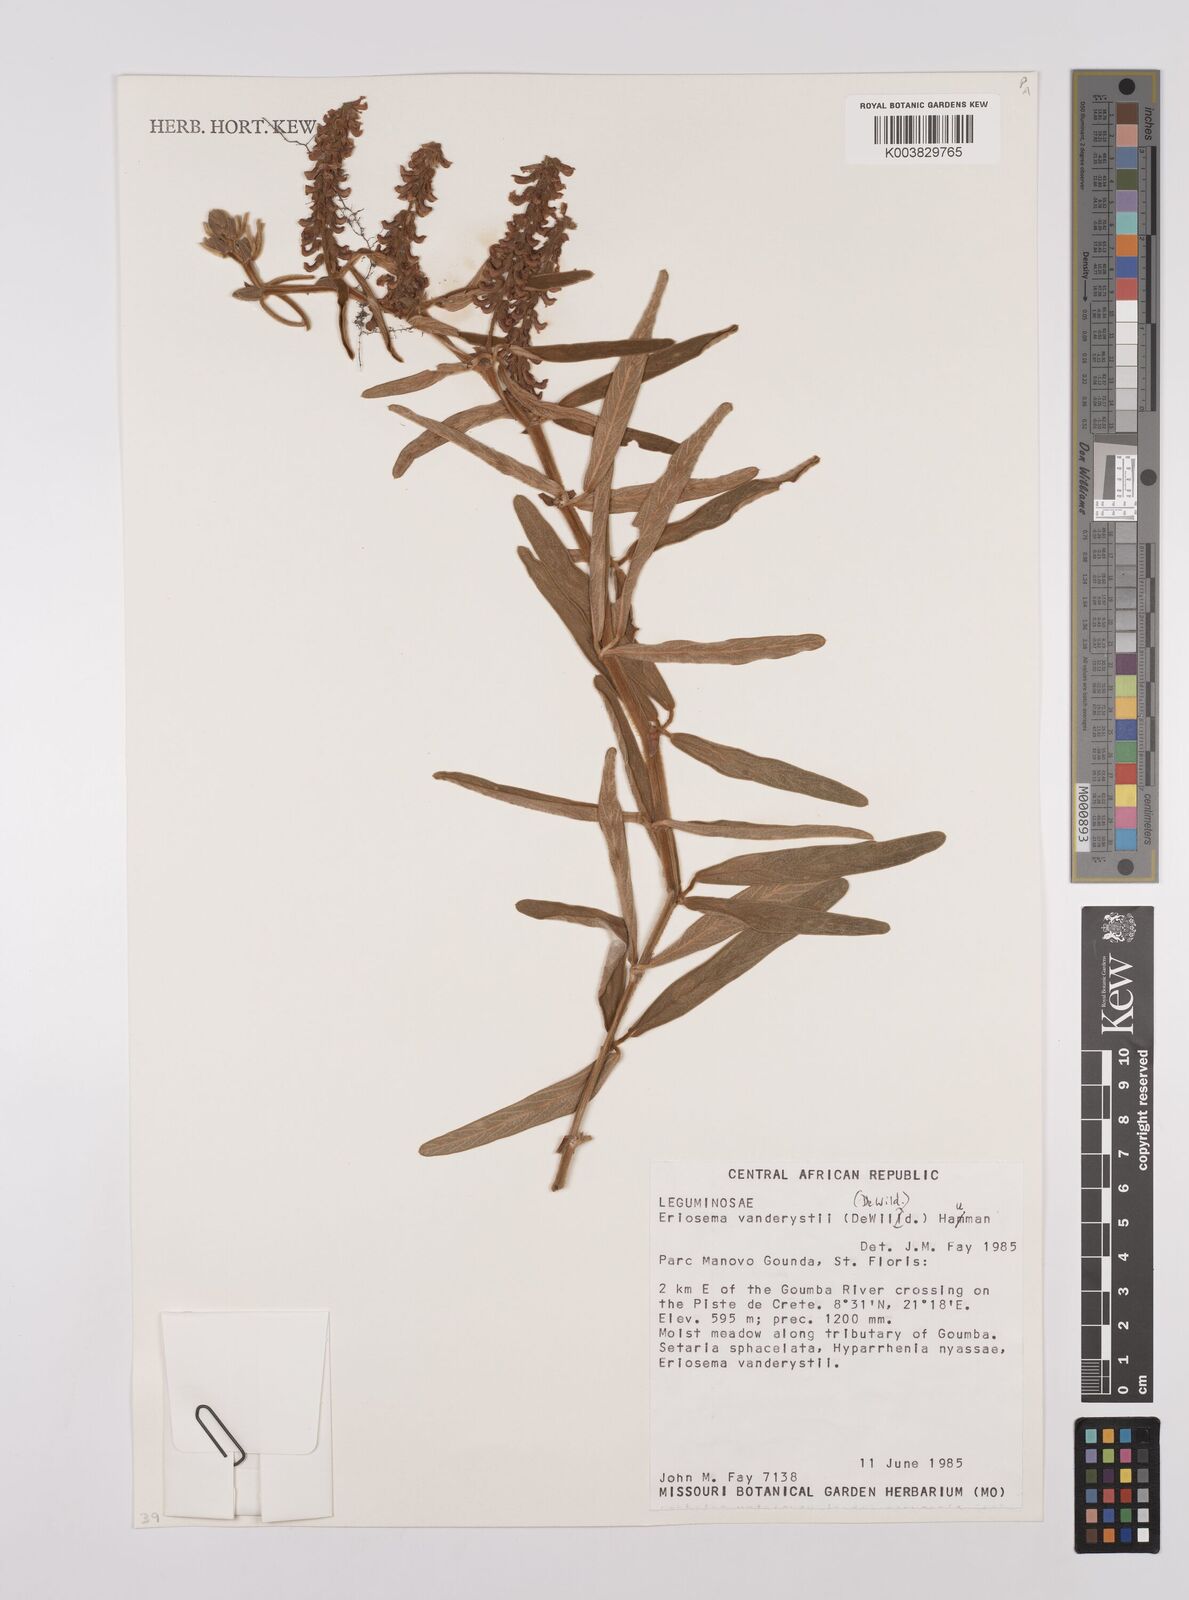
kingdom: Plantae
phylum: Tracheophyta
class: Magnoliopsida
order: Fabales
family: Fabaceae
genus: Eriosema
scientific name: Eriosema vanderystii
